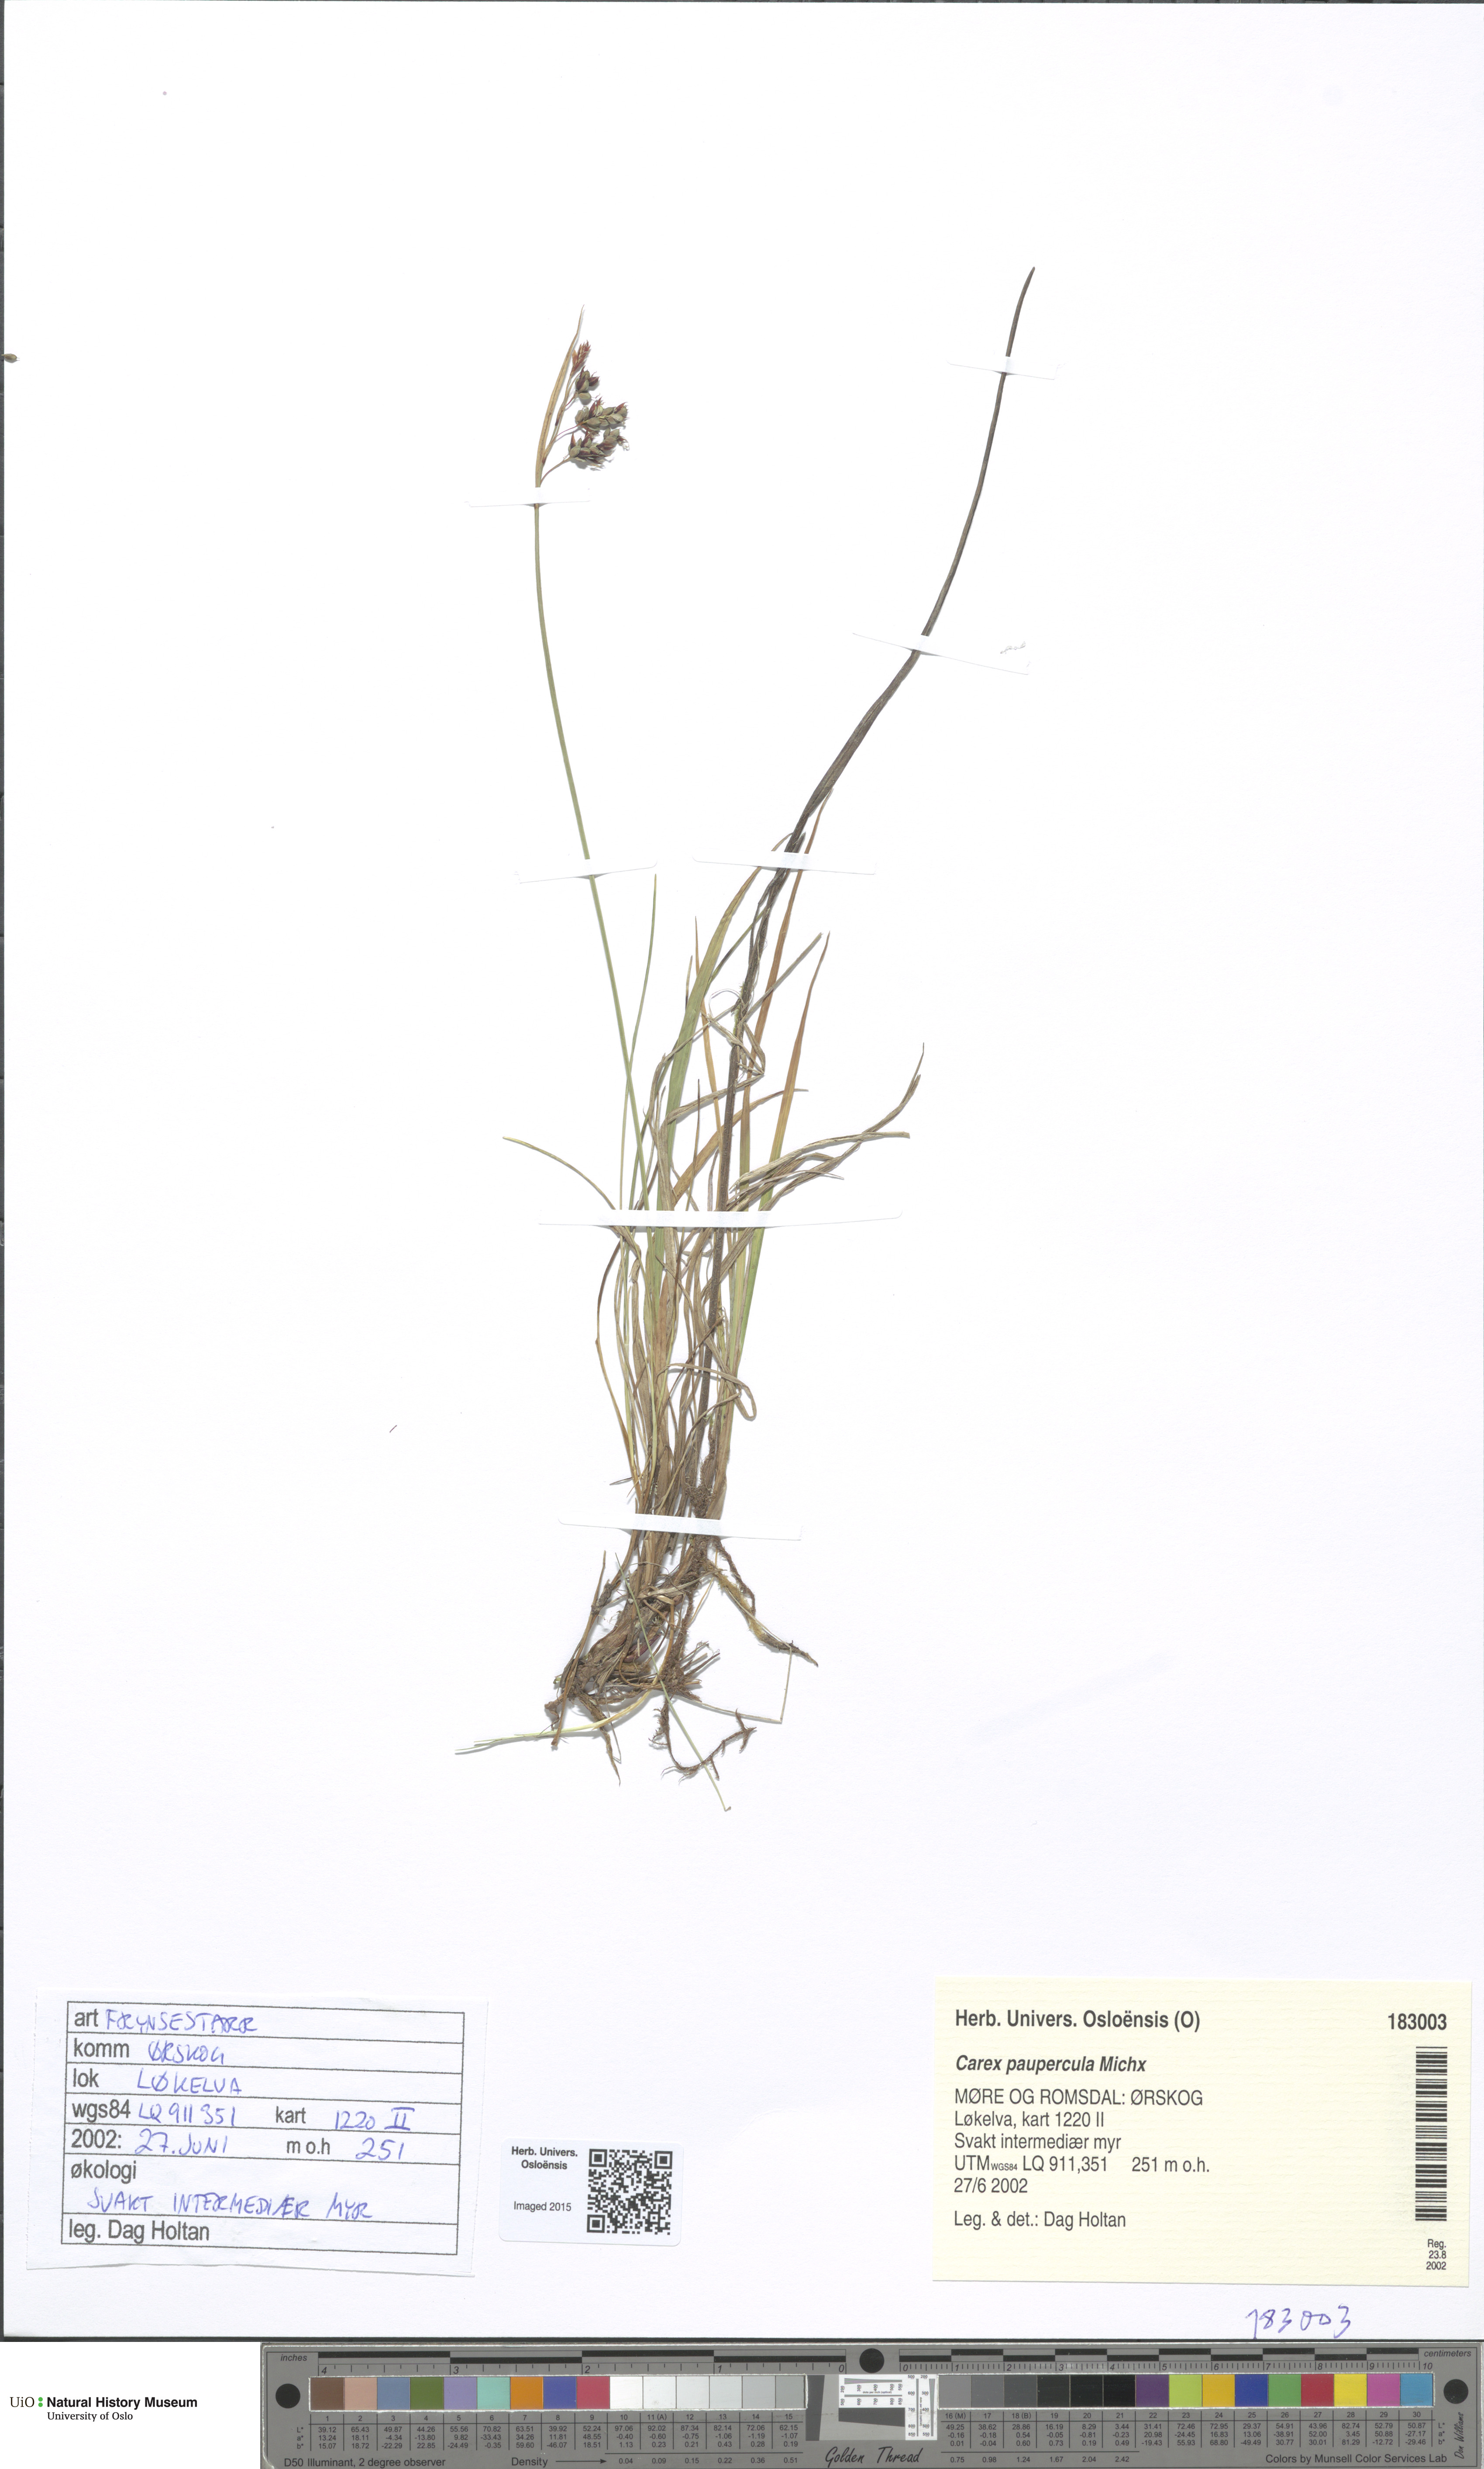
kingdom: Plantae
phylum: Tracheophyta
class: Liliopsida
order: Poales
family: Cyperaceae
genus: Carex
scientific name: Carex magellanica
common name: Bog sedge
